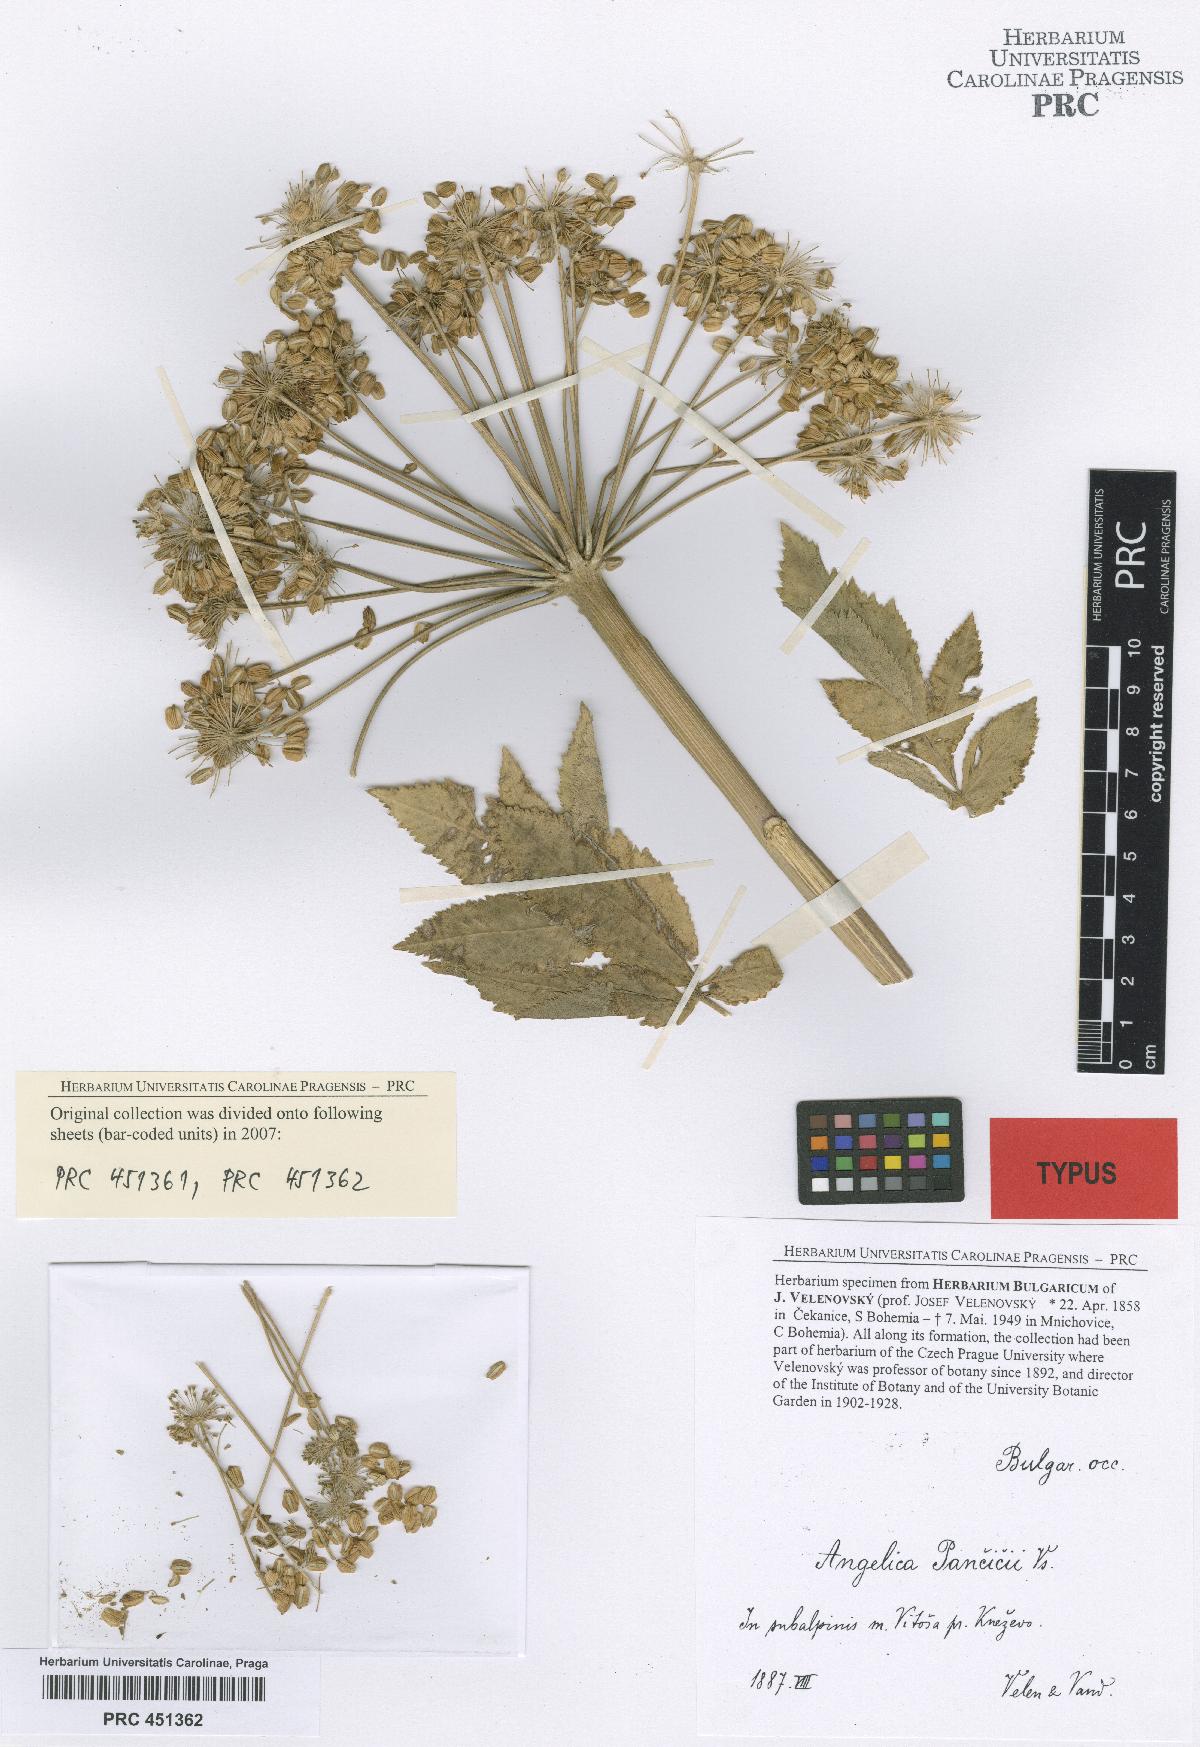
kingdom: Plantae
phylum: Tracheophyta
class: Magnoliopsida
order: Apiales
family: Apiaceae
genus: Ostericum
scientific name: Ostericum palustre
